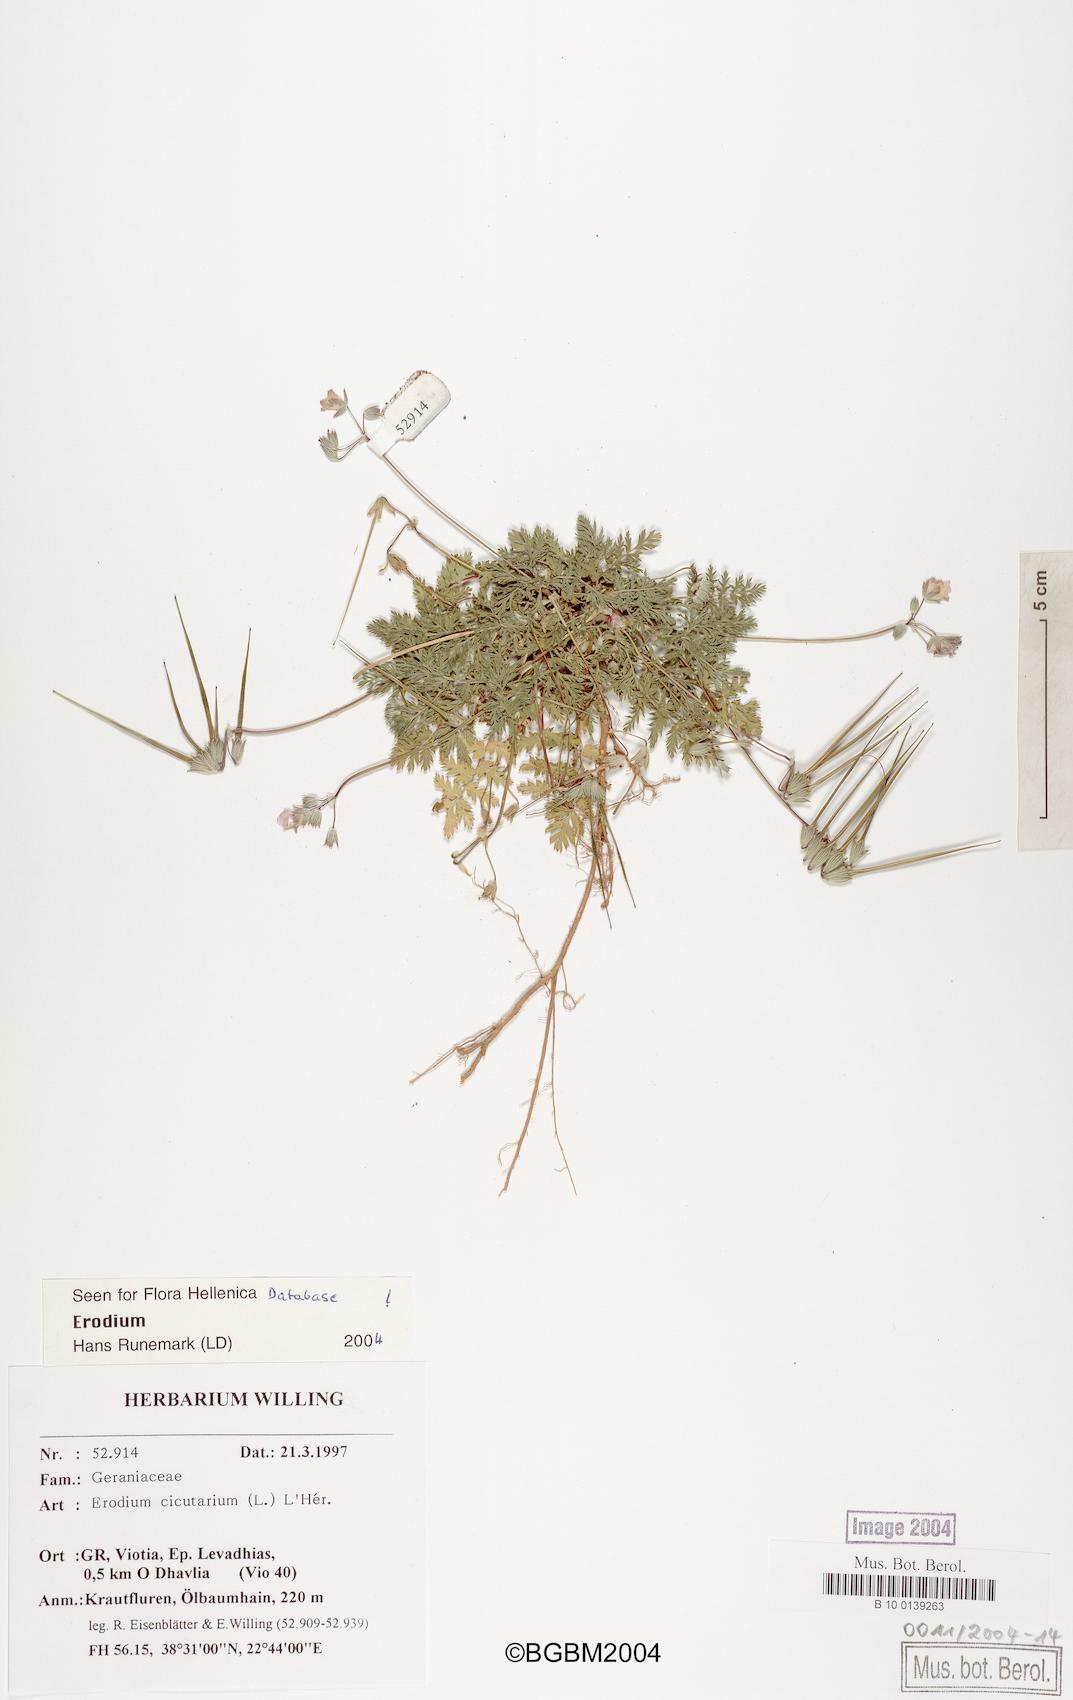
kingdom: Plantae
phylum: Tracheophyta
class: Magnoliopsida
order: Geraniales
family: Geraniaceae
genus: Erodium
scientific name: Erodium cicutarium
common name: Common stork's-bill
